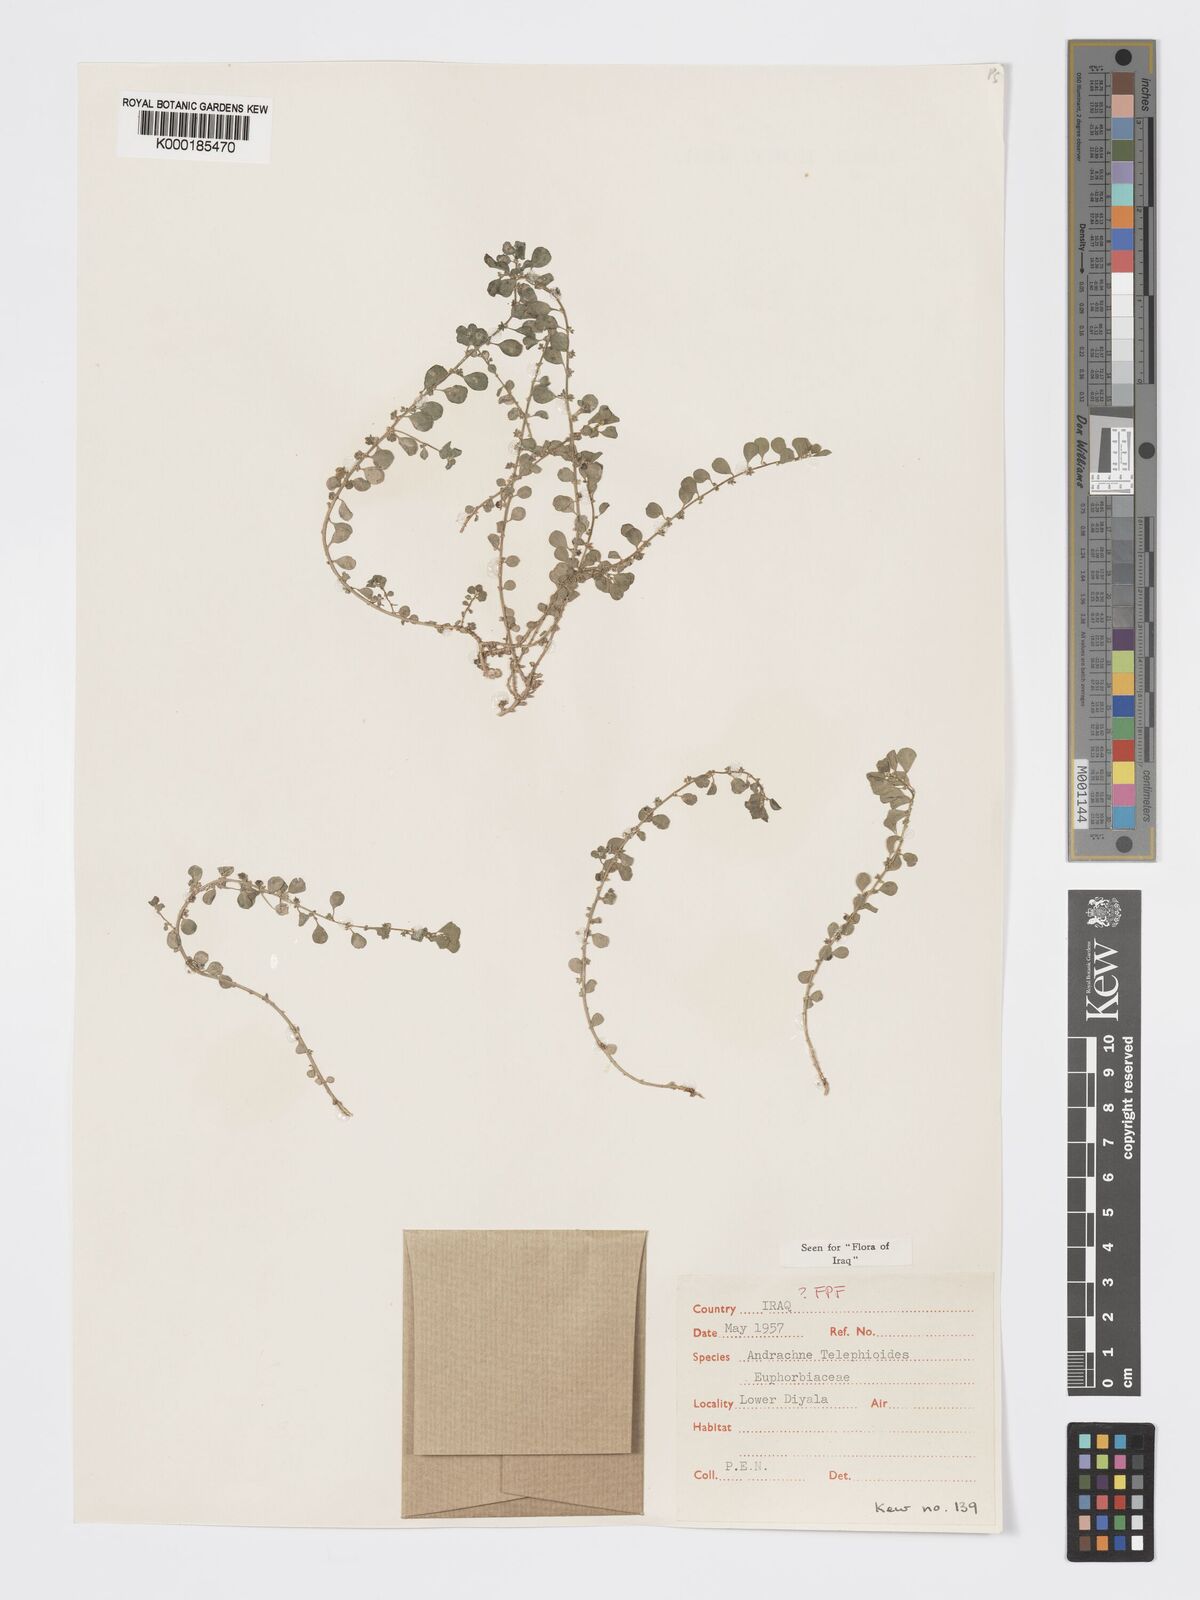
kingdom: Plantae
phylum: Tracheophyta
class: Magnoliopsida
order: Malpighiales
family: Phyllanthaceae
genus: Andrachne
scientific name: Andrachne telephioides
